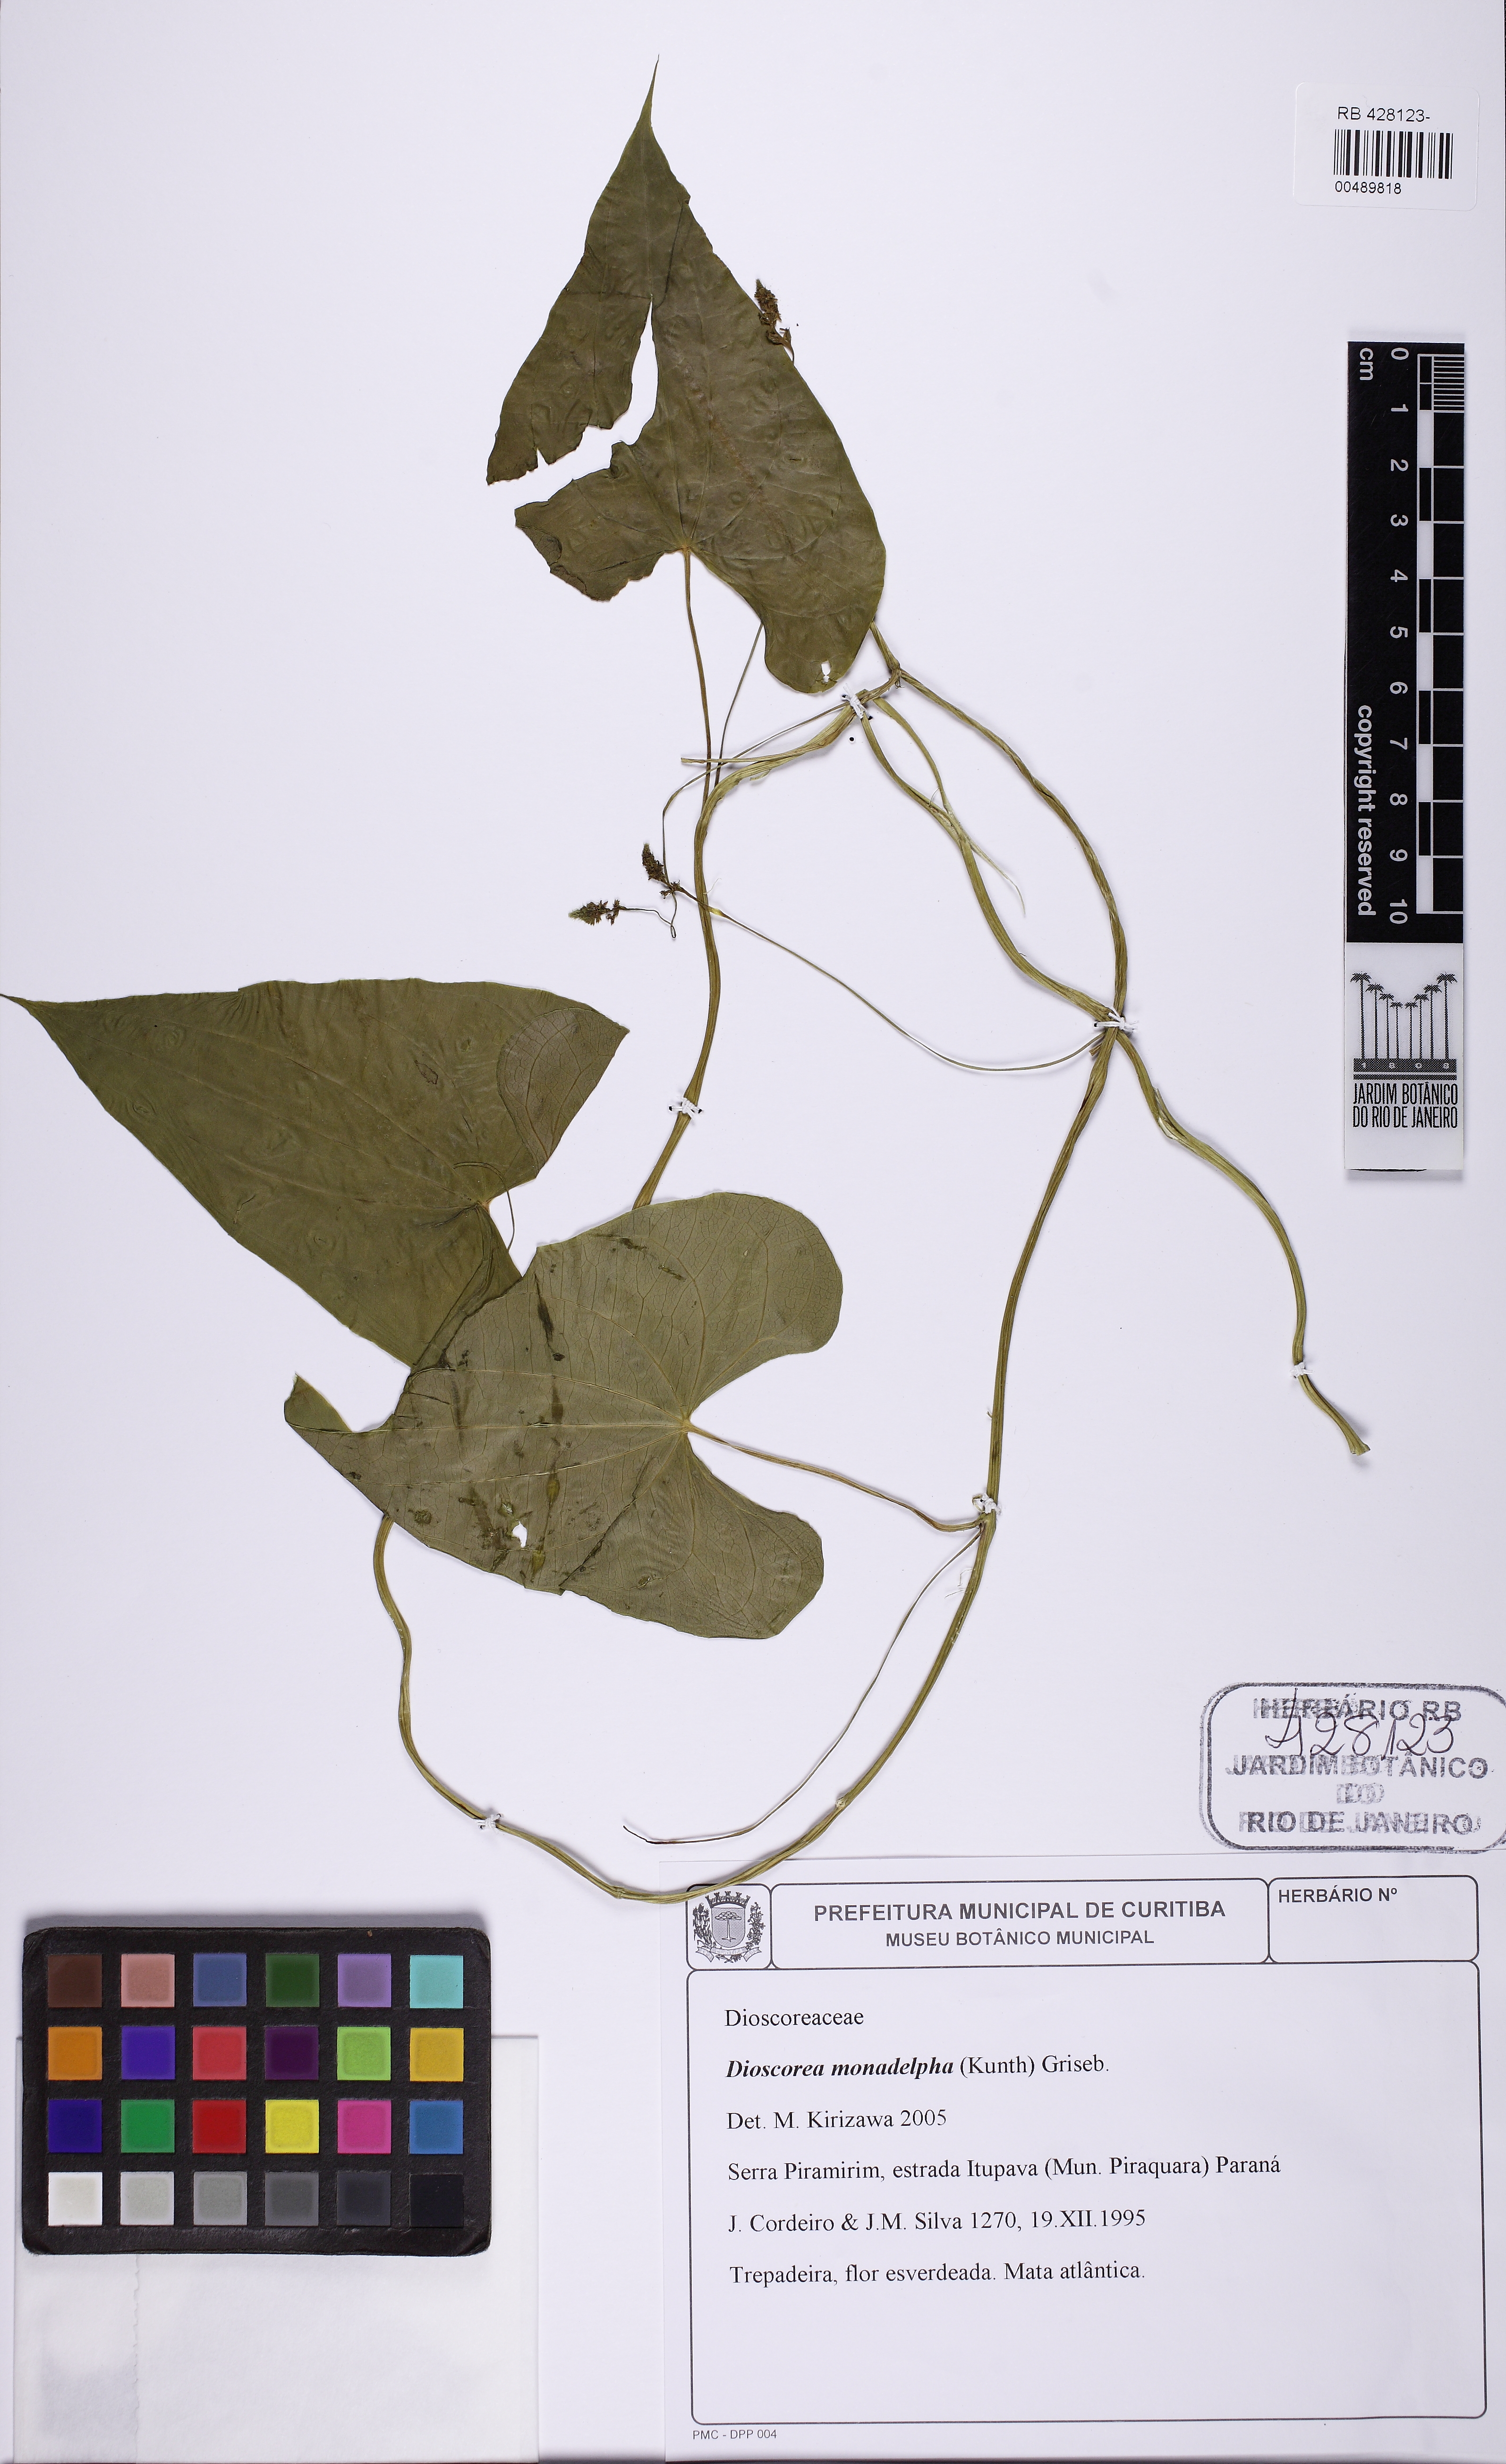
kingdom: Plantae
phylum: Tracheophyta
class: Liliopsida
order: Dioscoreales
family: Dioscoreaceae
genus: Dioscorea
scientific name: Dioscorea monadelpha
